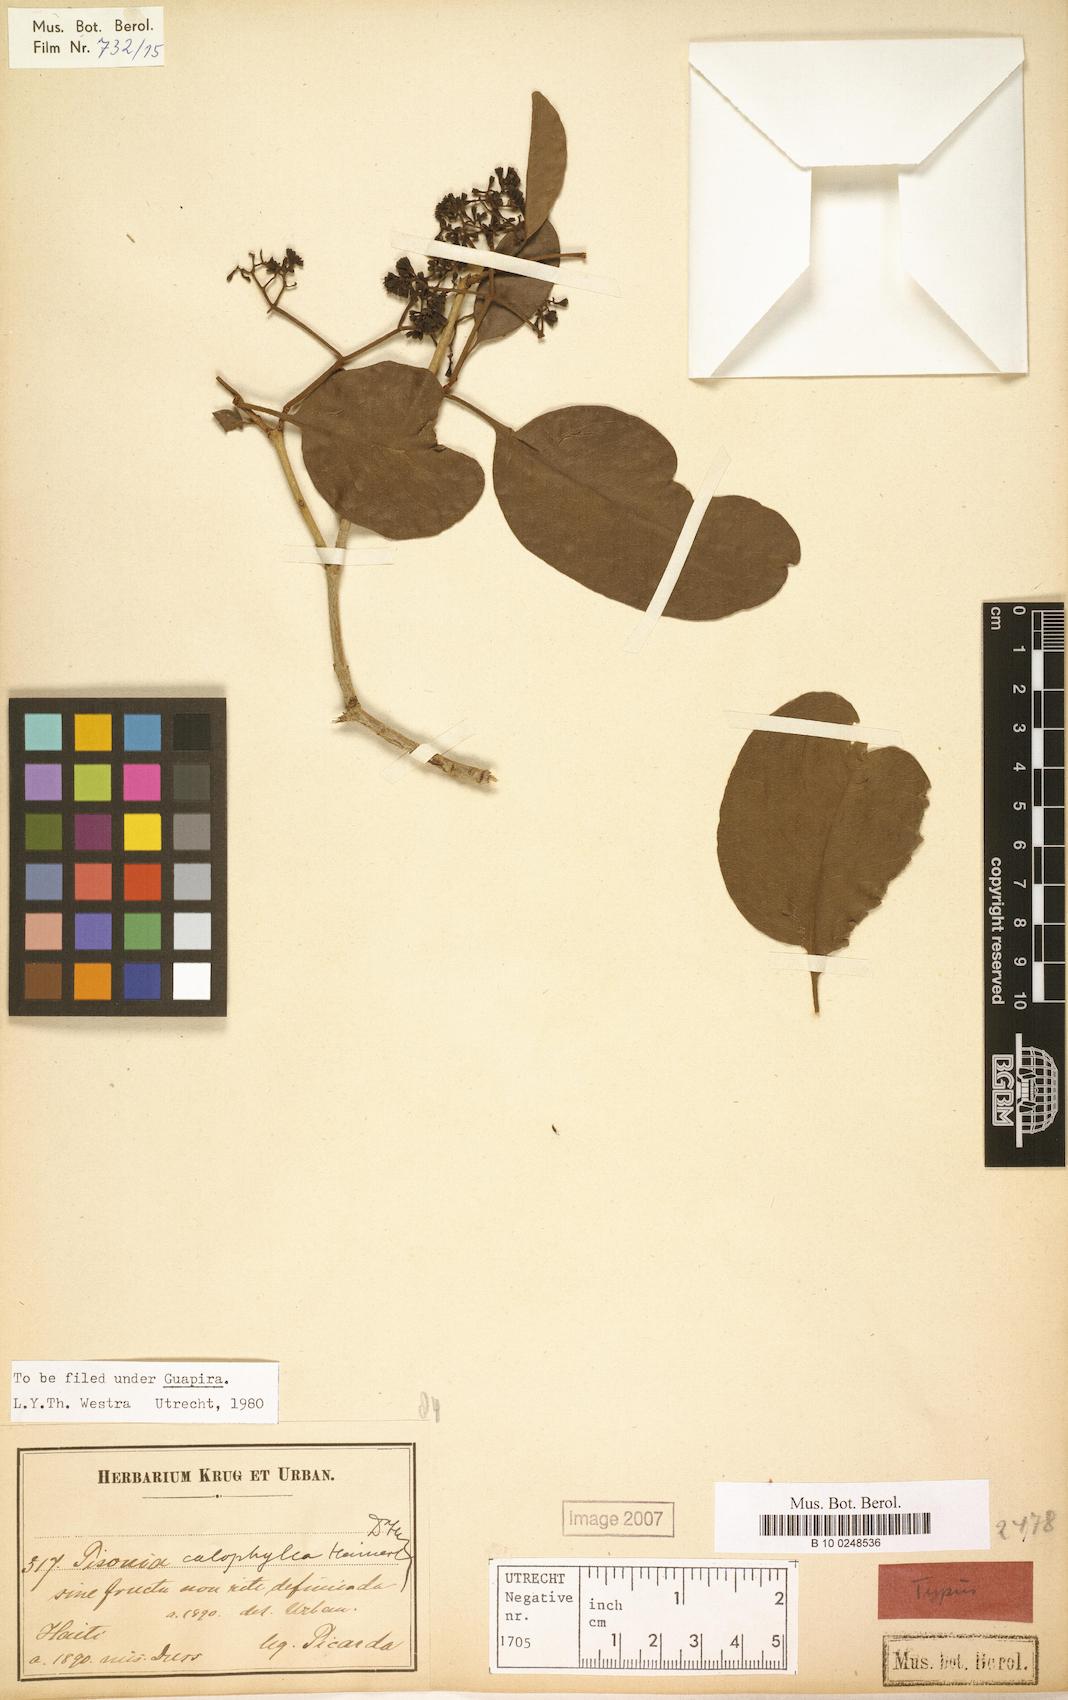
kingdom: Plantae
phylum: Tracheophyta
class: Magnoliopsida
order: Caryophyllales
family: Nyctaginaceae
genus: Guapira
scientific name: Guapira obtusata
